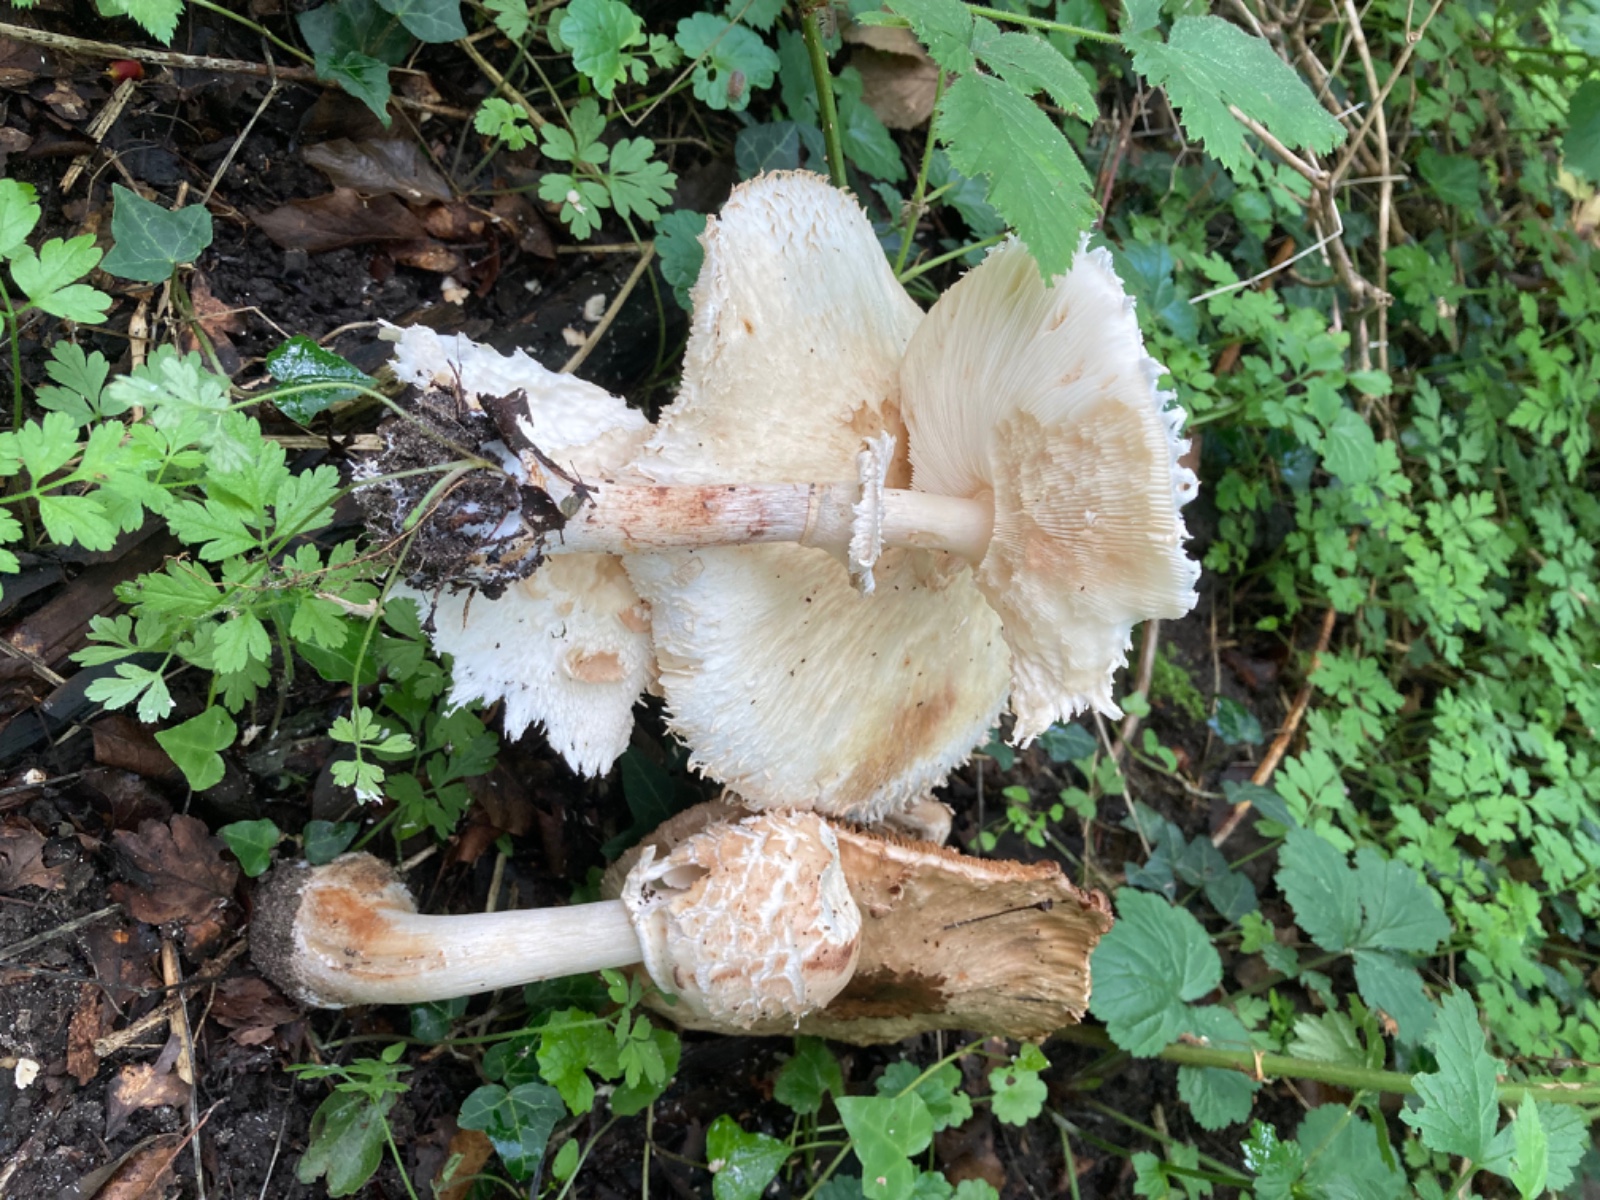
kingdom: Fungi
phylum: Basidiomycota
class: Agaricomycetes
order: Agaricales
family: Agaricaceae
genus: Chlorophyllum
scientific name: Chlorophyllum
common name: rabarberhat
